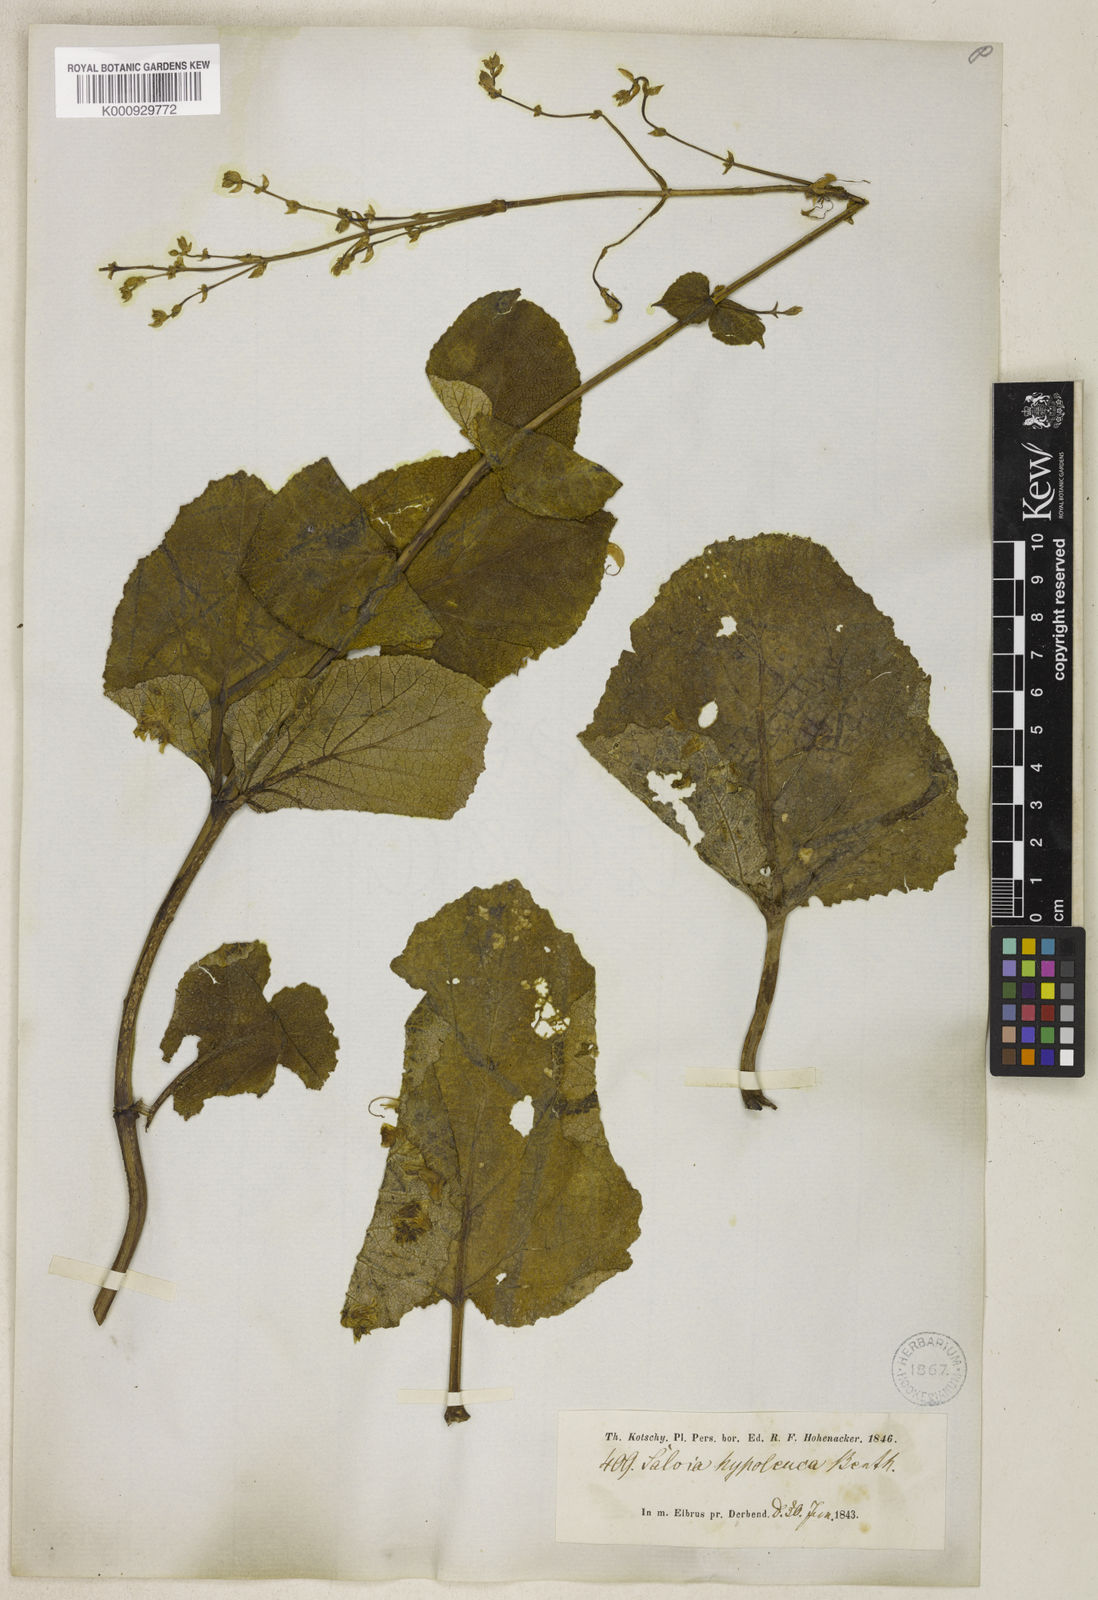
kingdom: Plantae
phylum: Tracheophyta
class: Magnoliopsida
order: Lamiales
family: Lamiaceae
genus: Salvia
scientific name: Salvia hypoleuca
